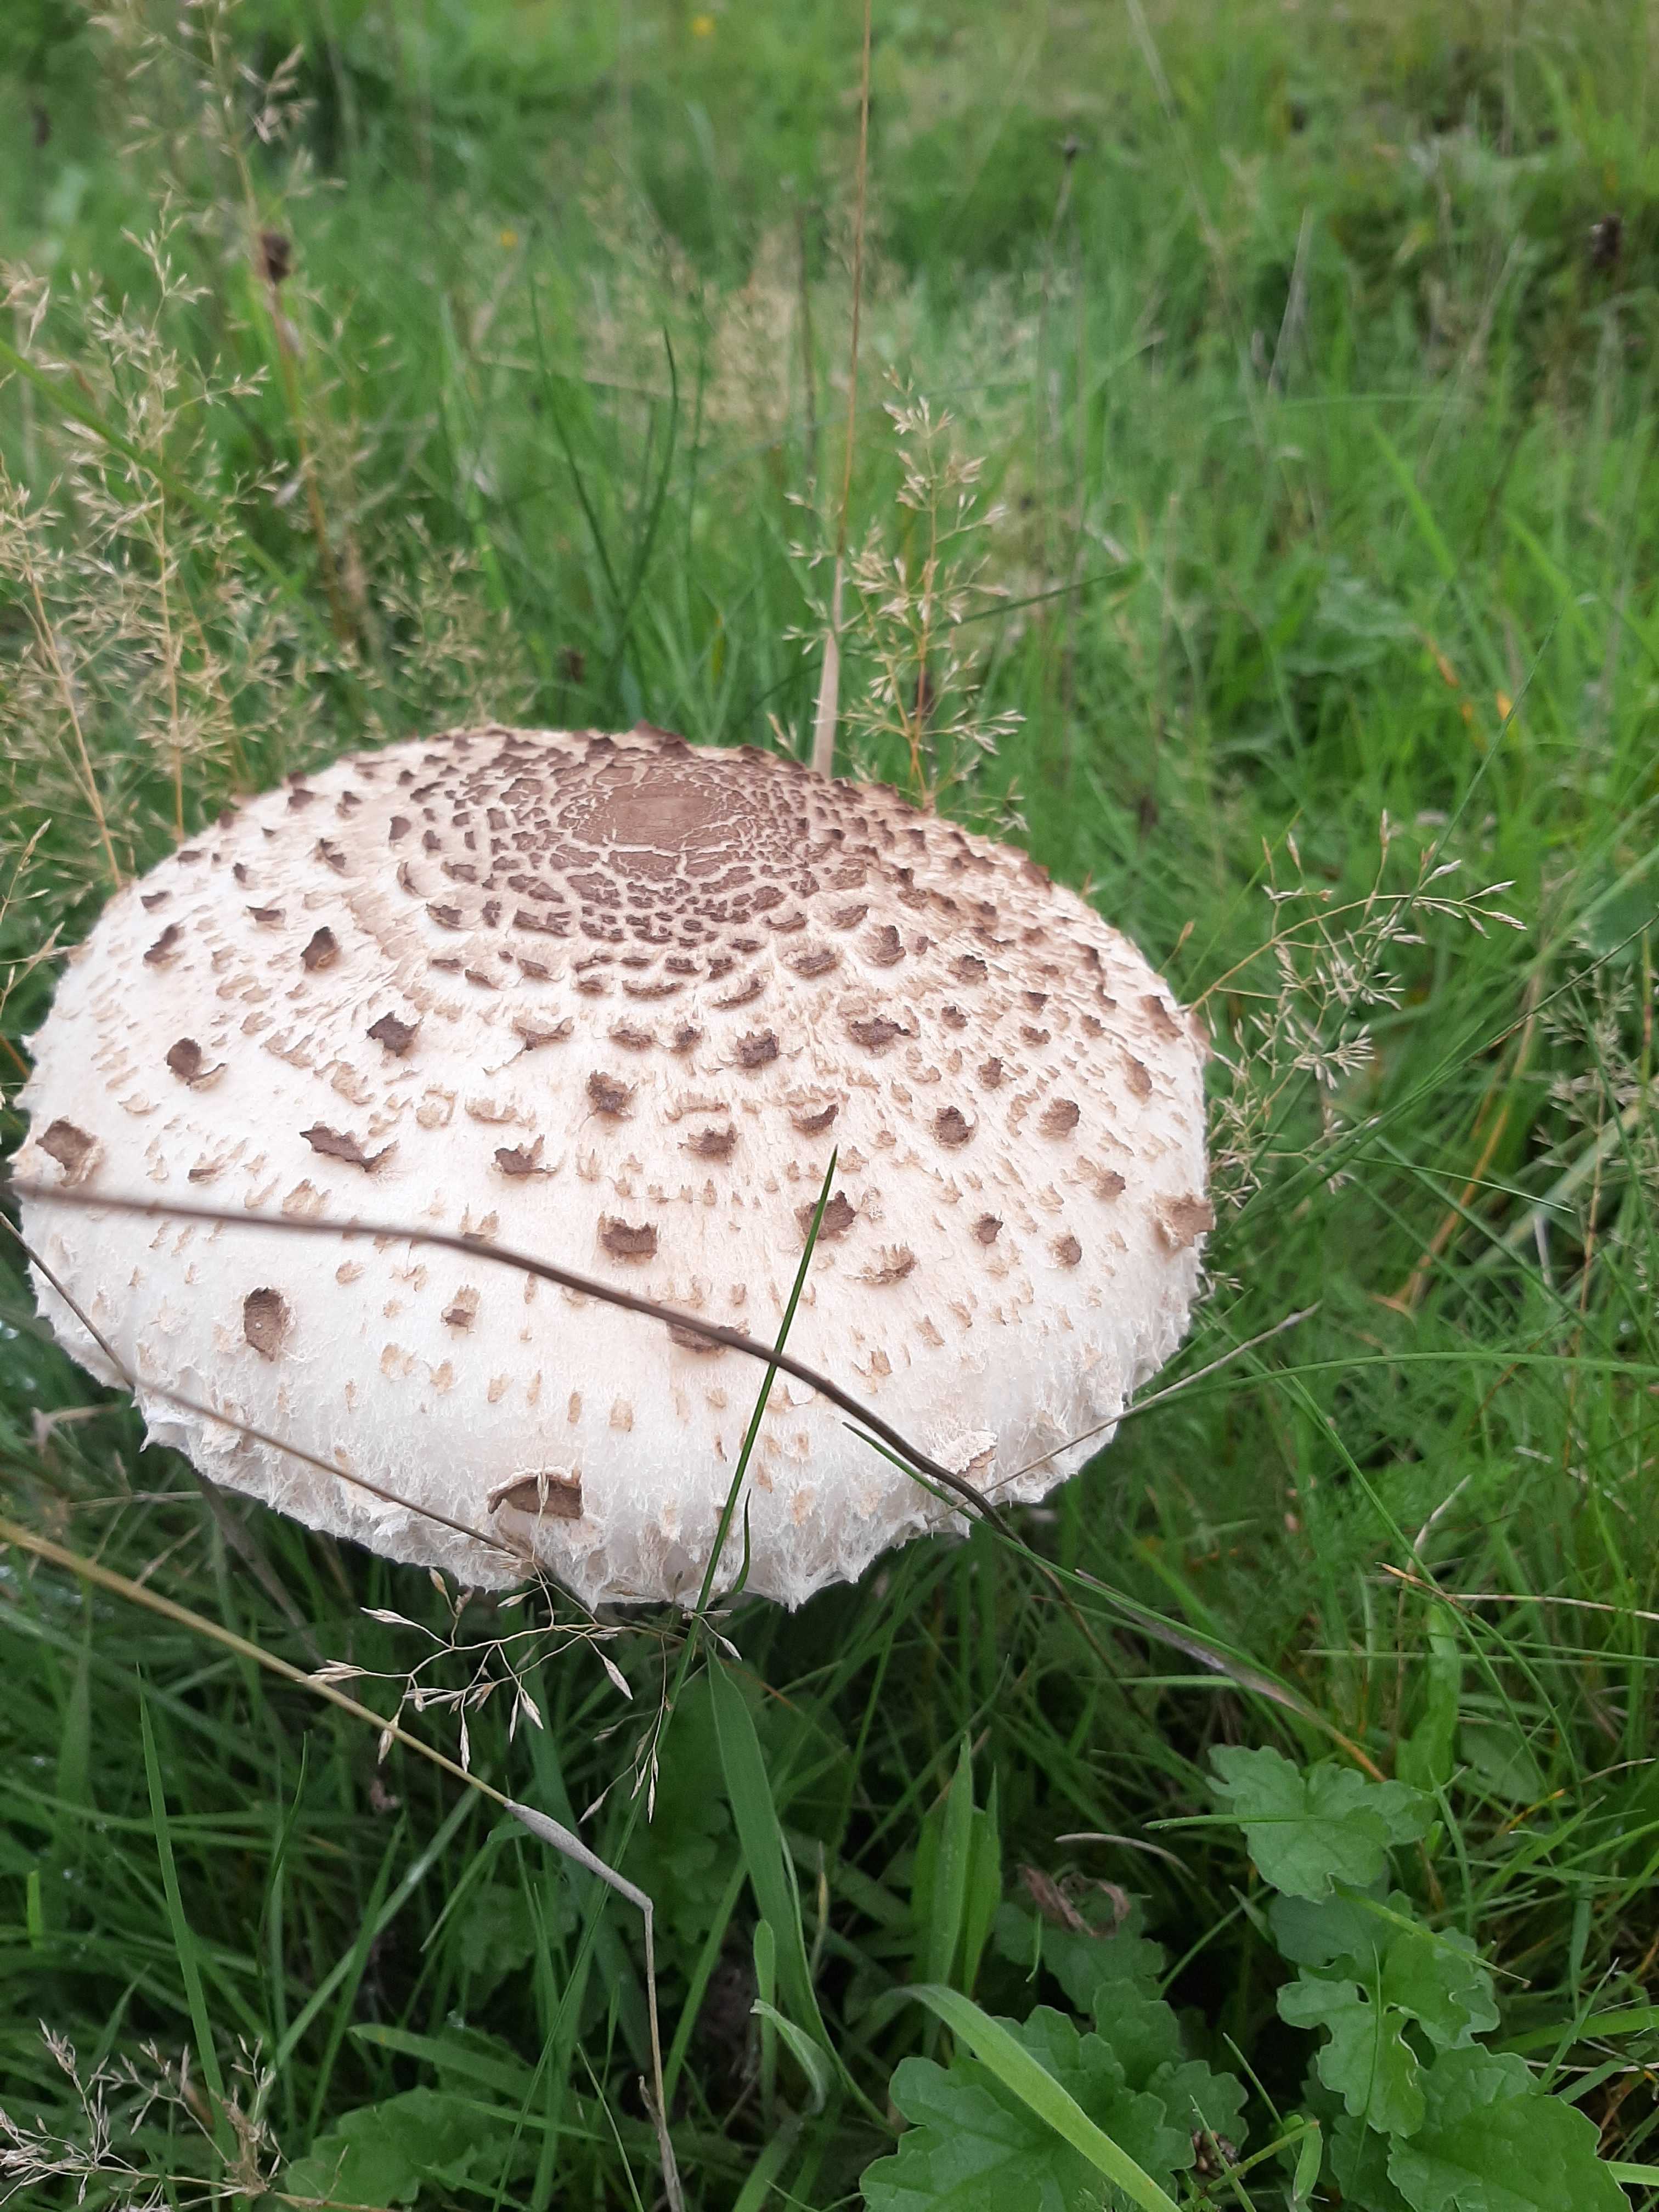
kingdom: Fungi
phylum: Basidiomycota
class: Agaricomycetes
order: Agaricales
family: Agaricaceae
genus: Macrolepiota
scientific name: Macrolepiota procera
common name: stor kæmpeparasolhat
